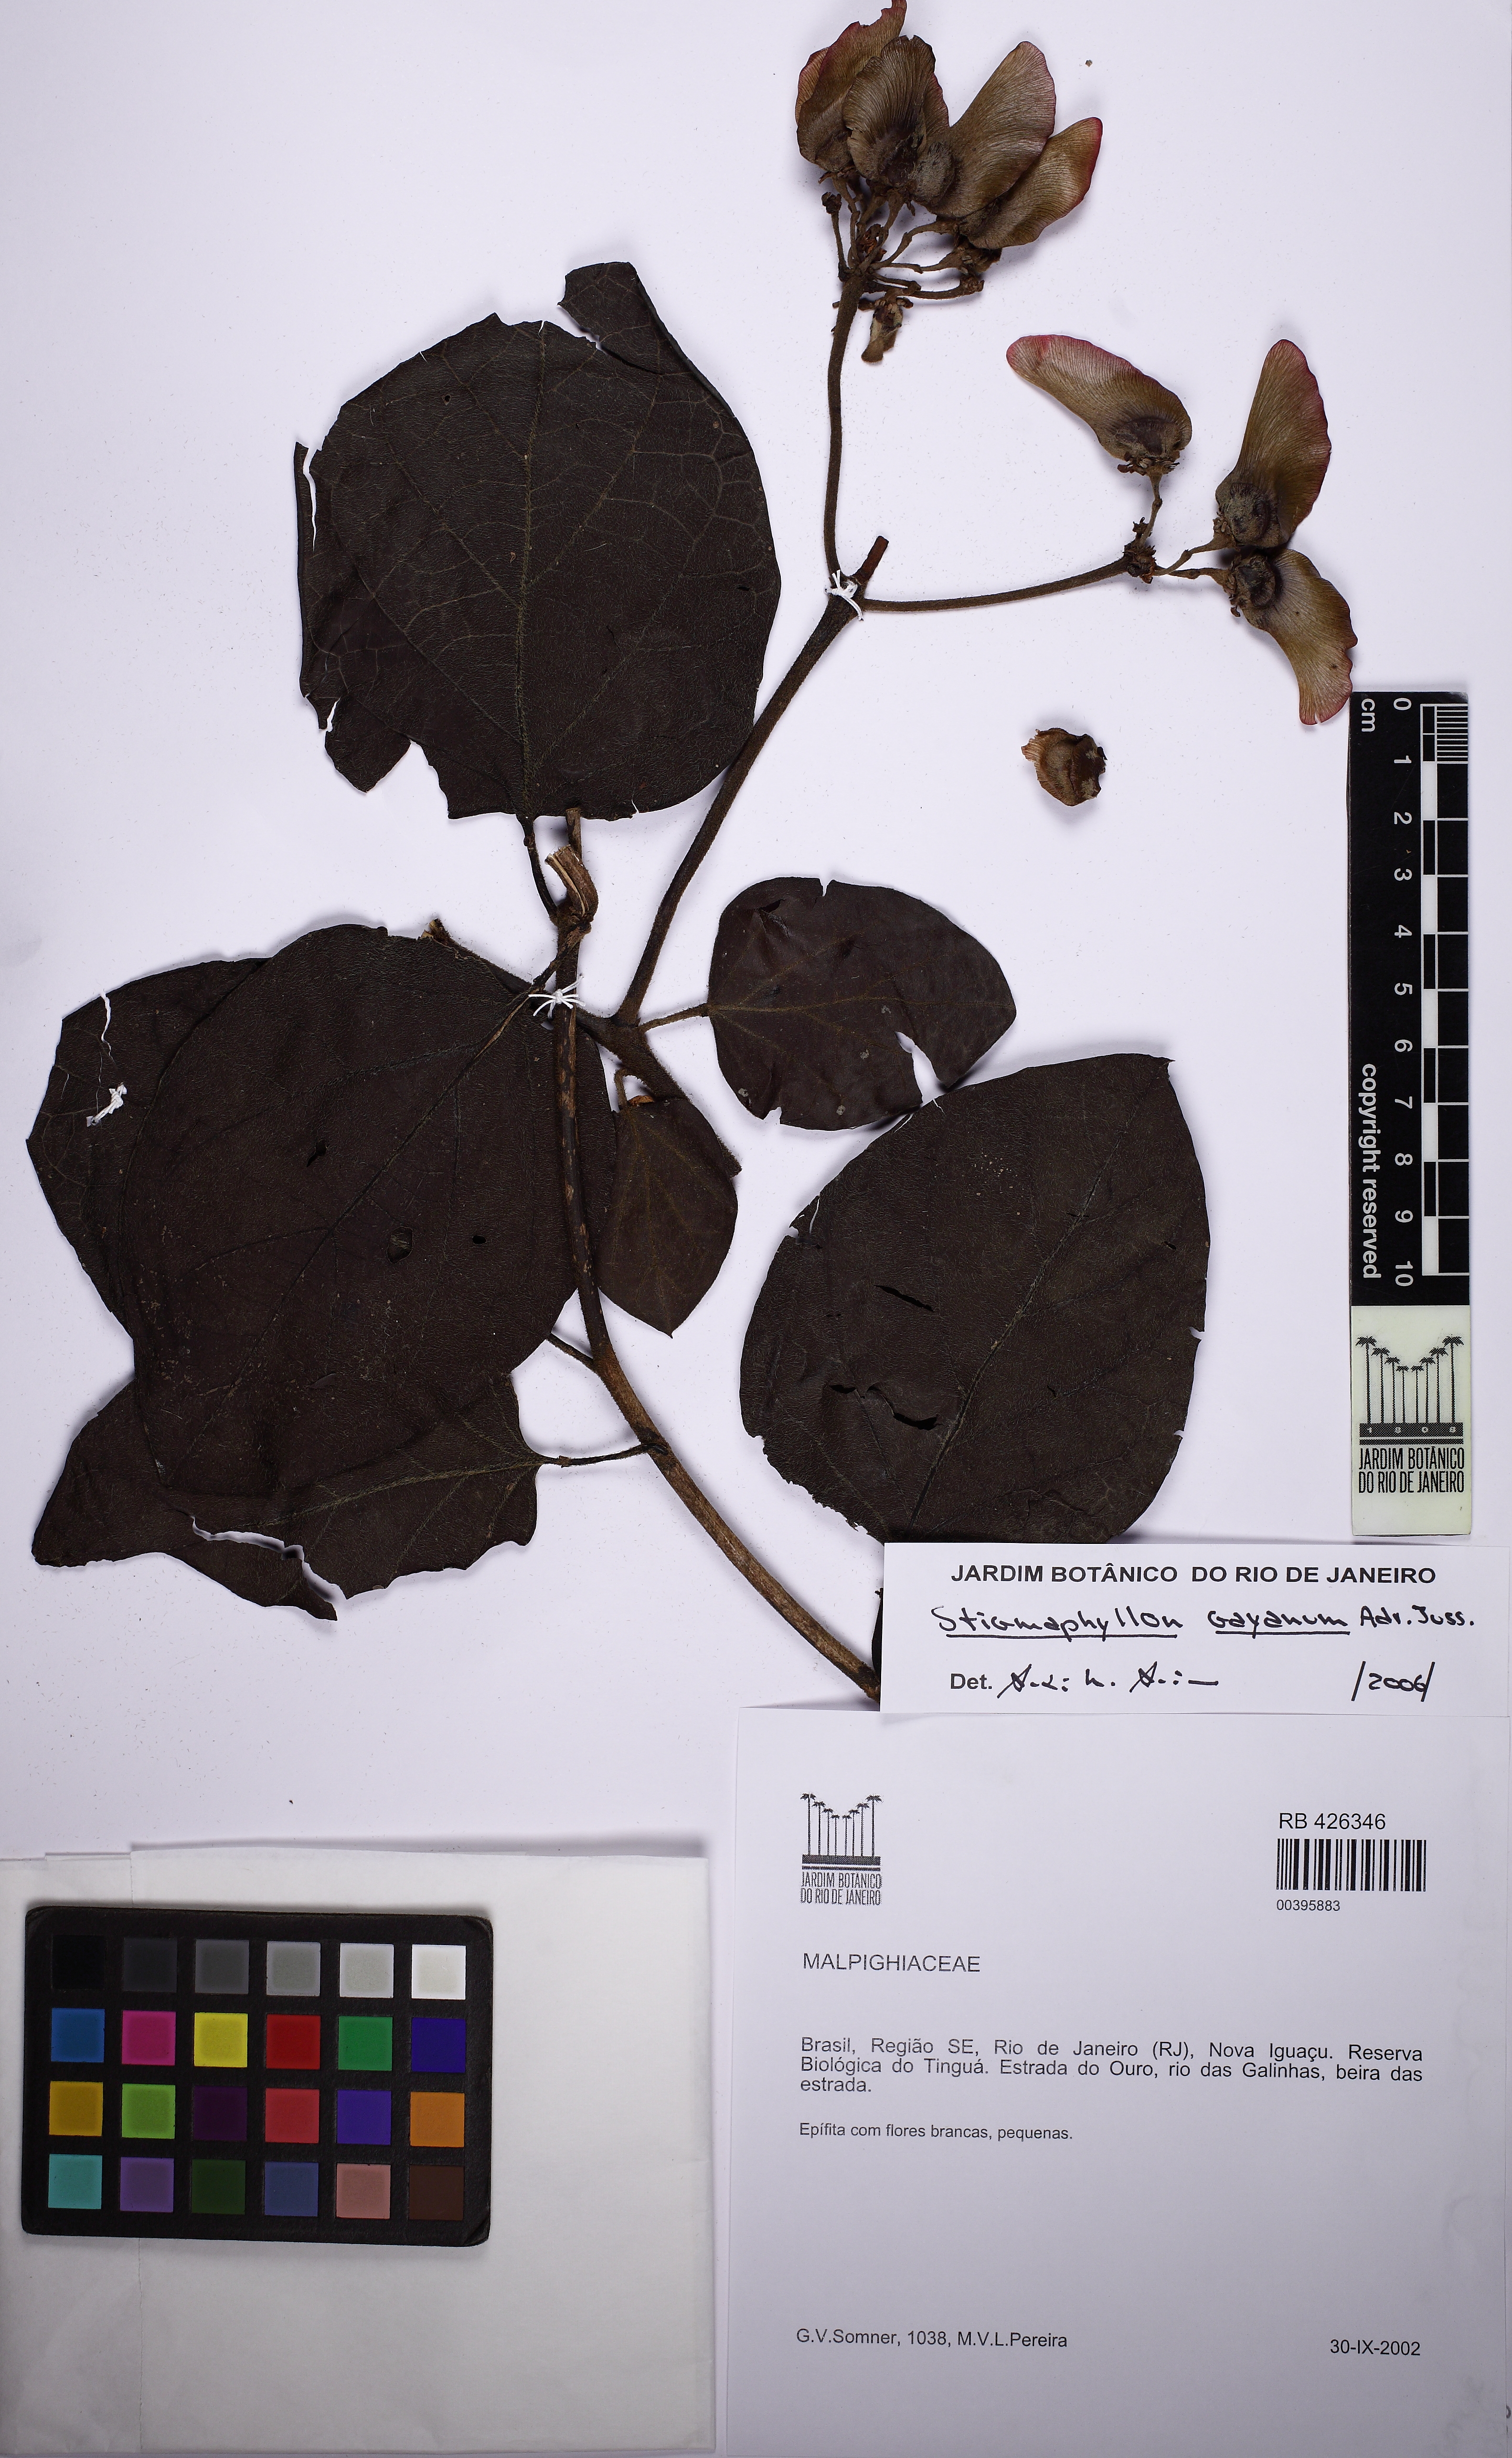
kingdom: Plantae
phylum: Tracheophyta
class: Magnoliopsida
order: Malpighiales
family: Malpighiaceae
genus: Stigmaphyllon
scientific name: Stigmaphyllon gayanum
